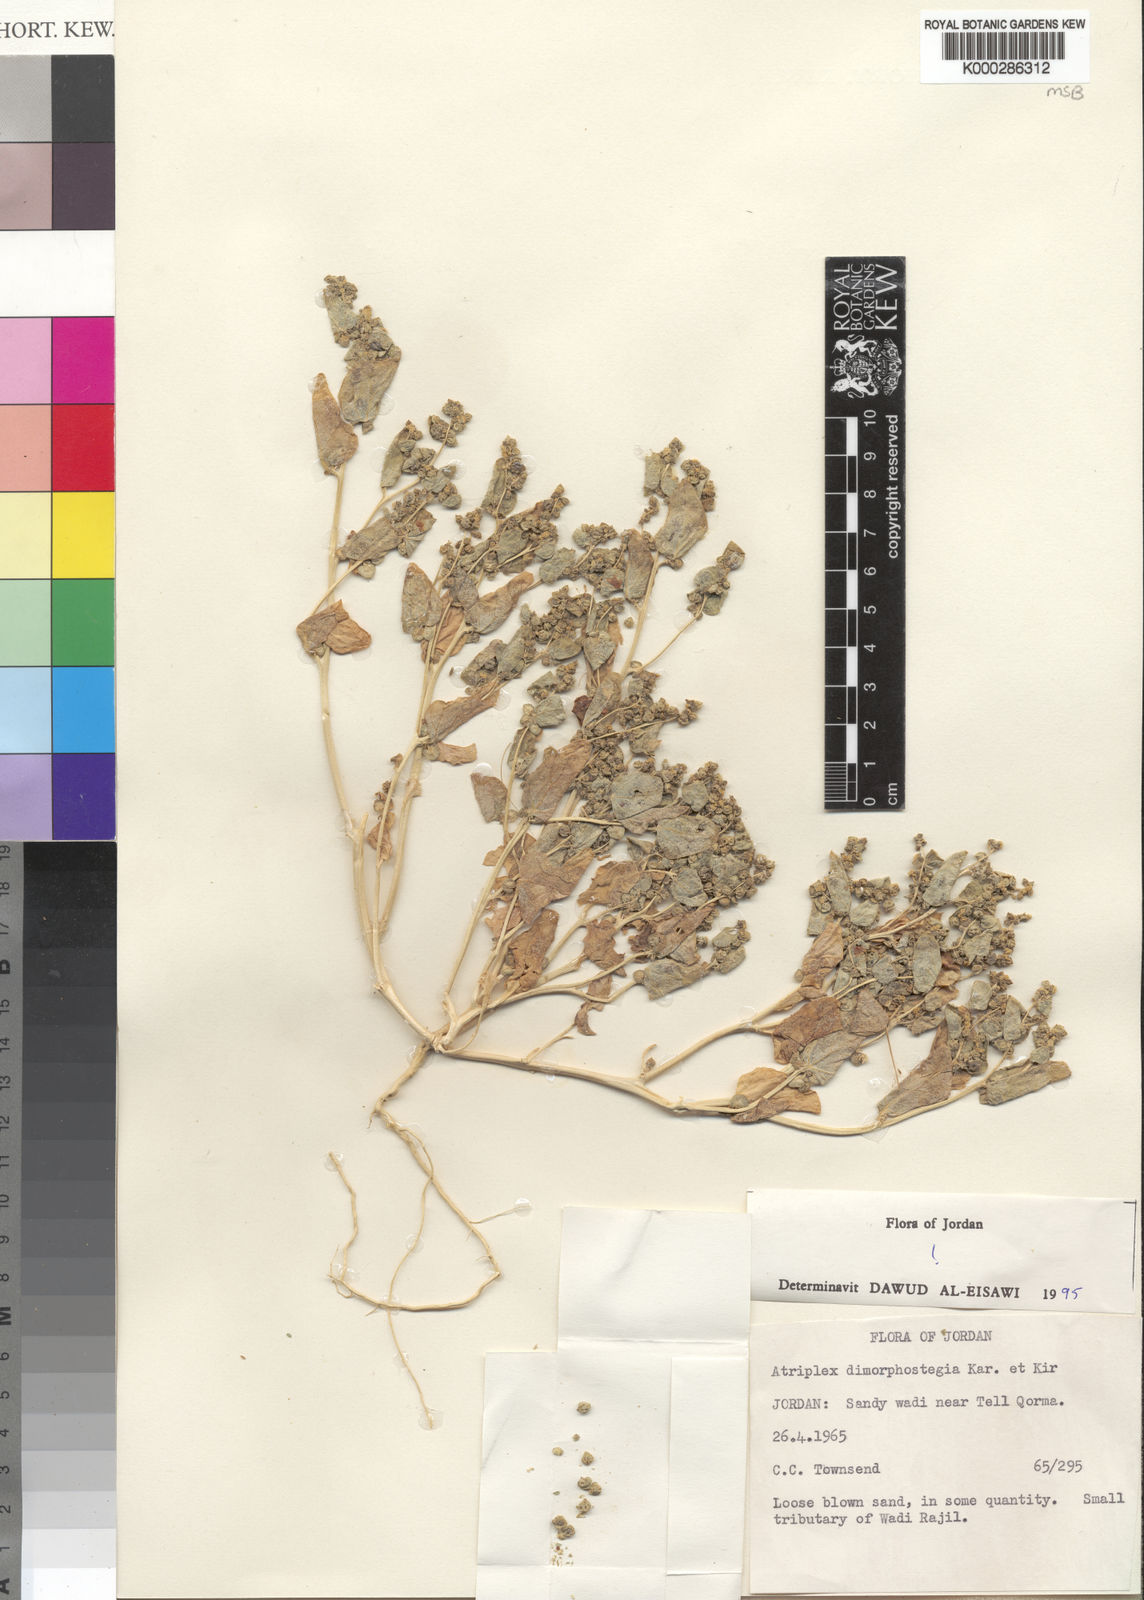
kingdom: Plantae
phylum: Tracheophyta
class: Magnoliopsida
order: Caryophyllales
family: Amaranthaceae
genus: Atriplex
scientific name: Atriplex dimorphostegia
